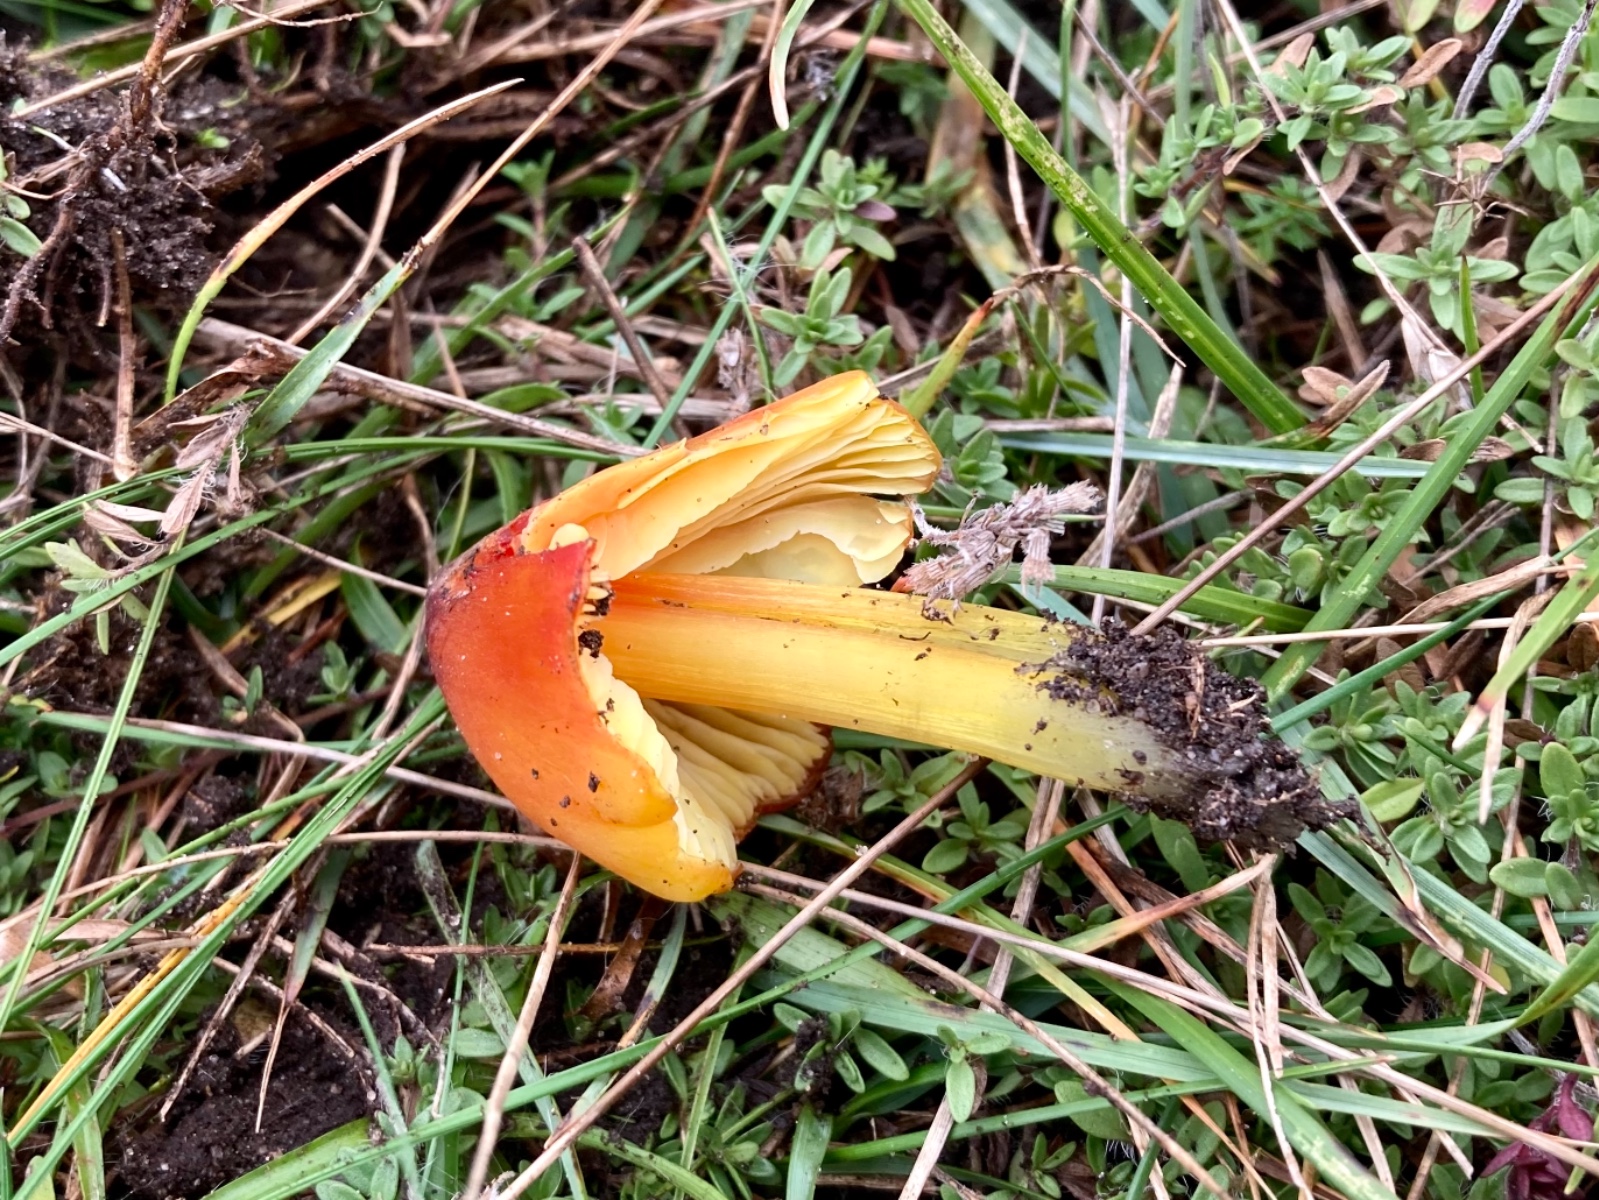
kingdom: Fungi
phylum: Basidiomycota
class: Agaricomycetes
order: Agaricales
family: Hygrophoraceae
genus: Hygrocybe
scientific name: Hygrocybe conica
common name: kegle-vokshat
